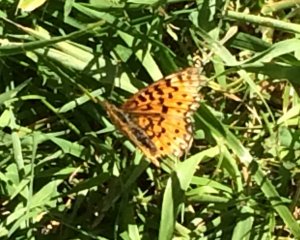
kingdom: Animalia
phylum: Arthropoda
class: Insecta
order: Lepidoptera
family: Nymphalidae
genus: Boloria
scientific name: Boloria selene
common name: Silver-bordered Fritillary
